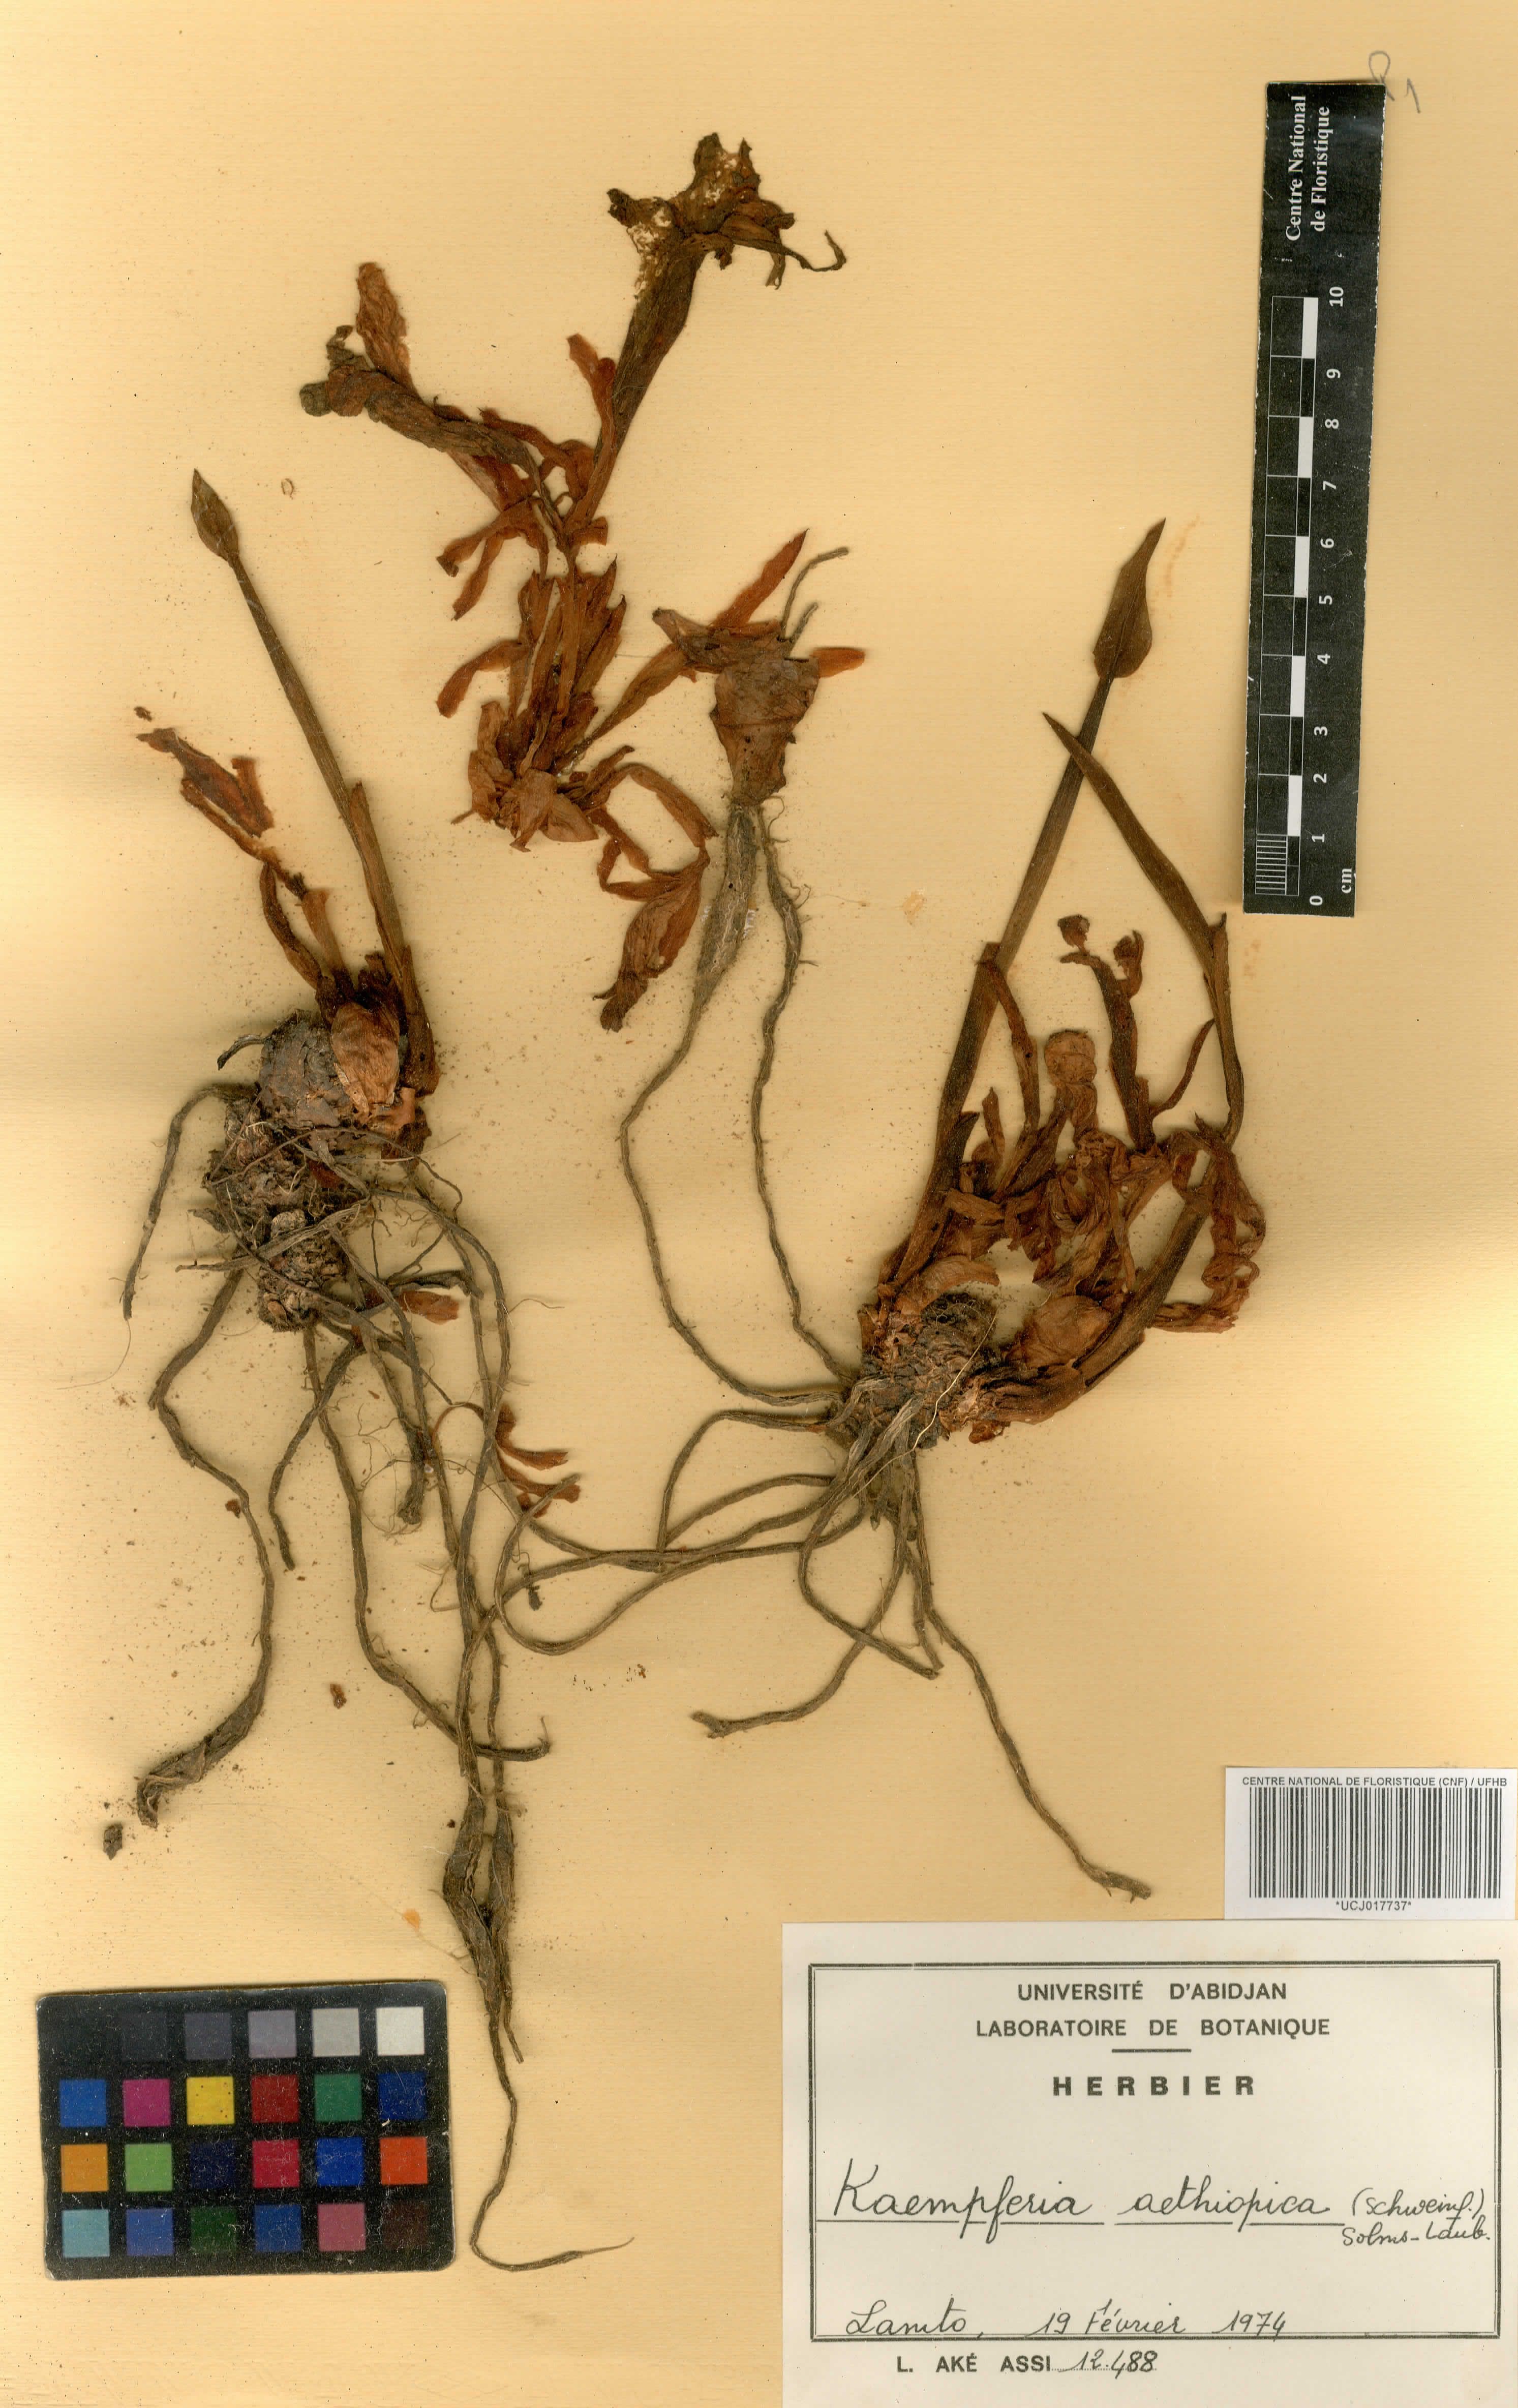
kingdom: Plantae
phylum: Tracheophyta
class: Liliopsida
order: Zingiberales
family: Zingiberaceae
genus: Kaempferia
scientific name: Kaempferia aethiopica
